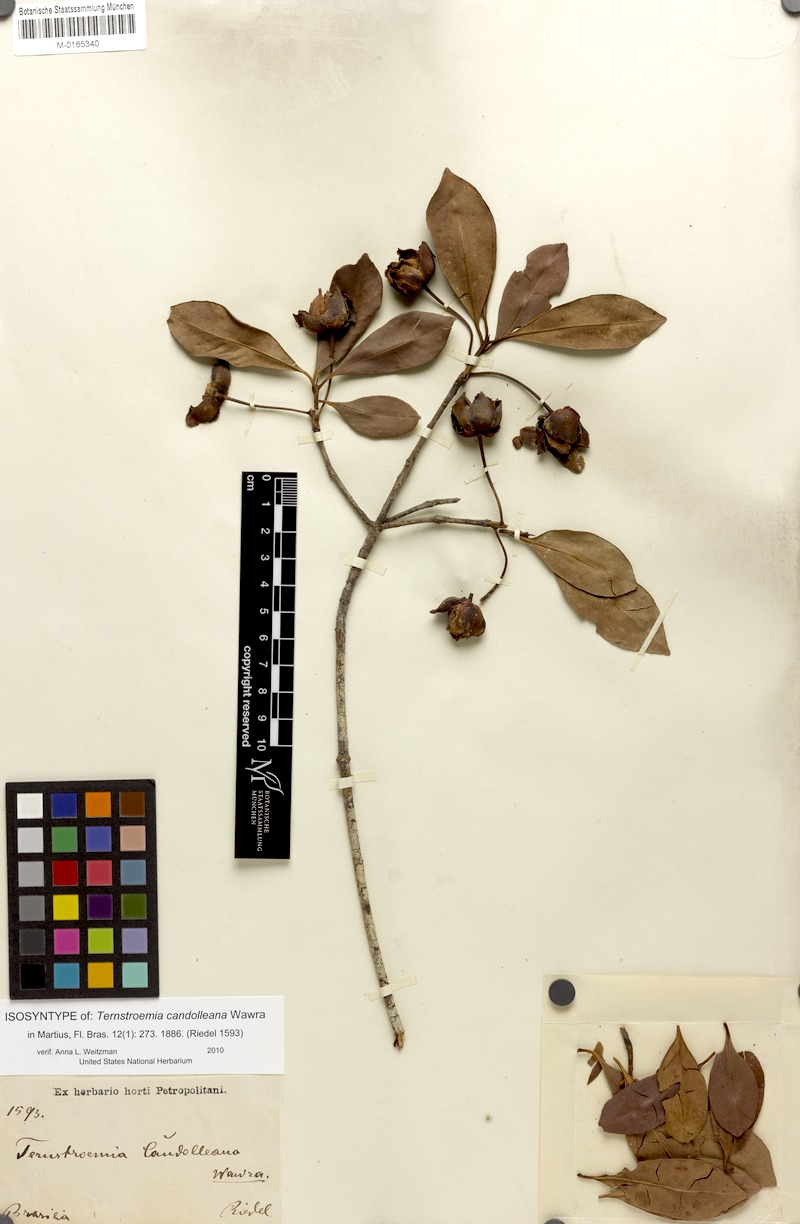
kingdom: Plantae
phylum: Tracheophyta
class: Magnoliopsida
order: Ericales
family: Pentaphylacaceae
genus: Ternstroemia
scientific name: Ternstroemia candolleana
